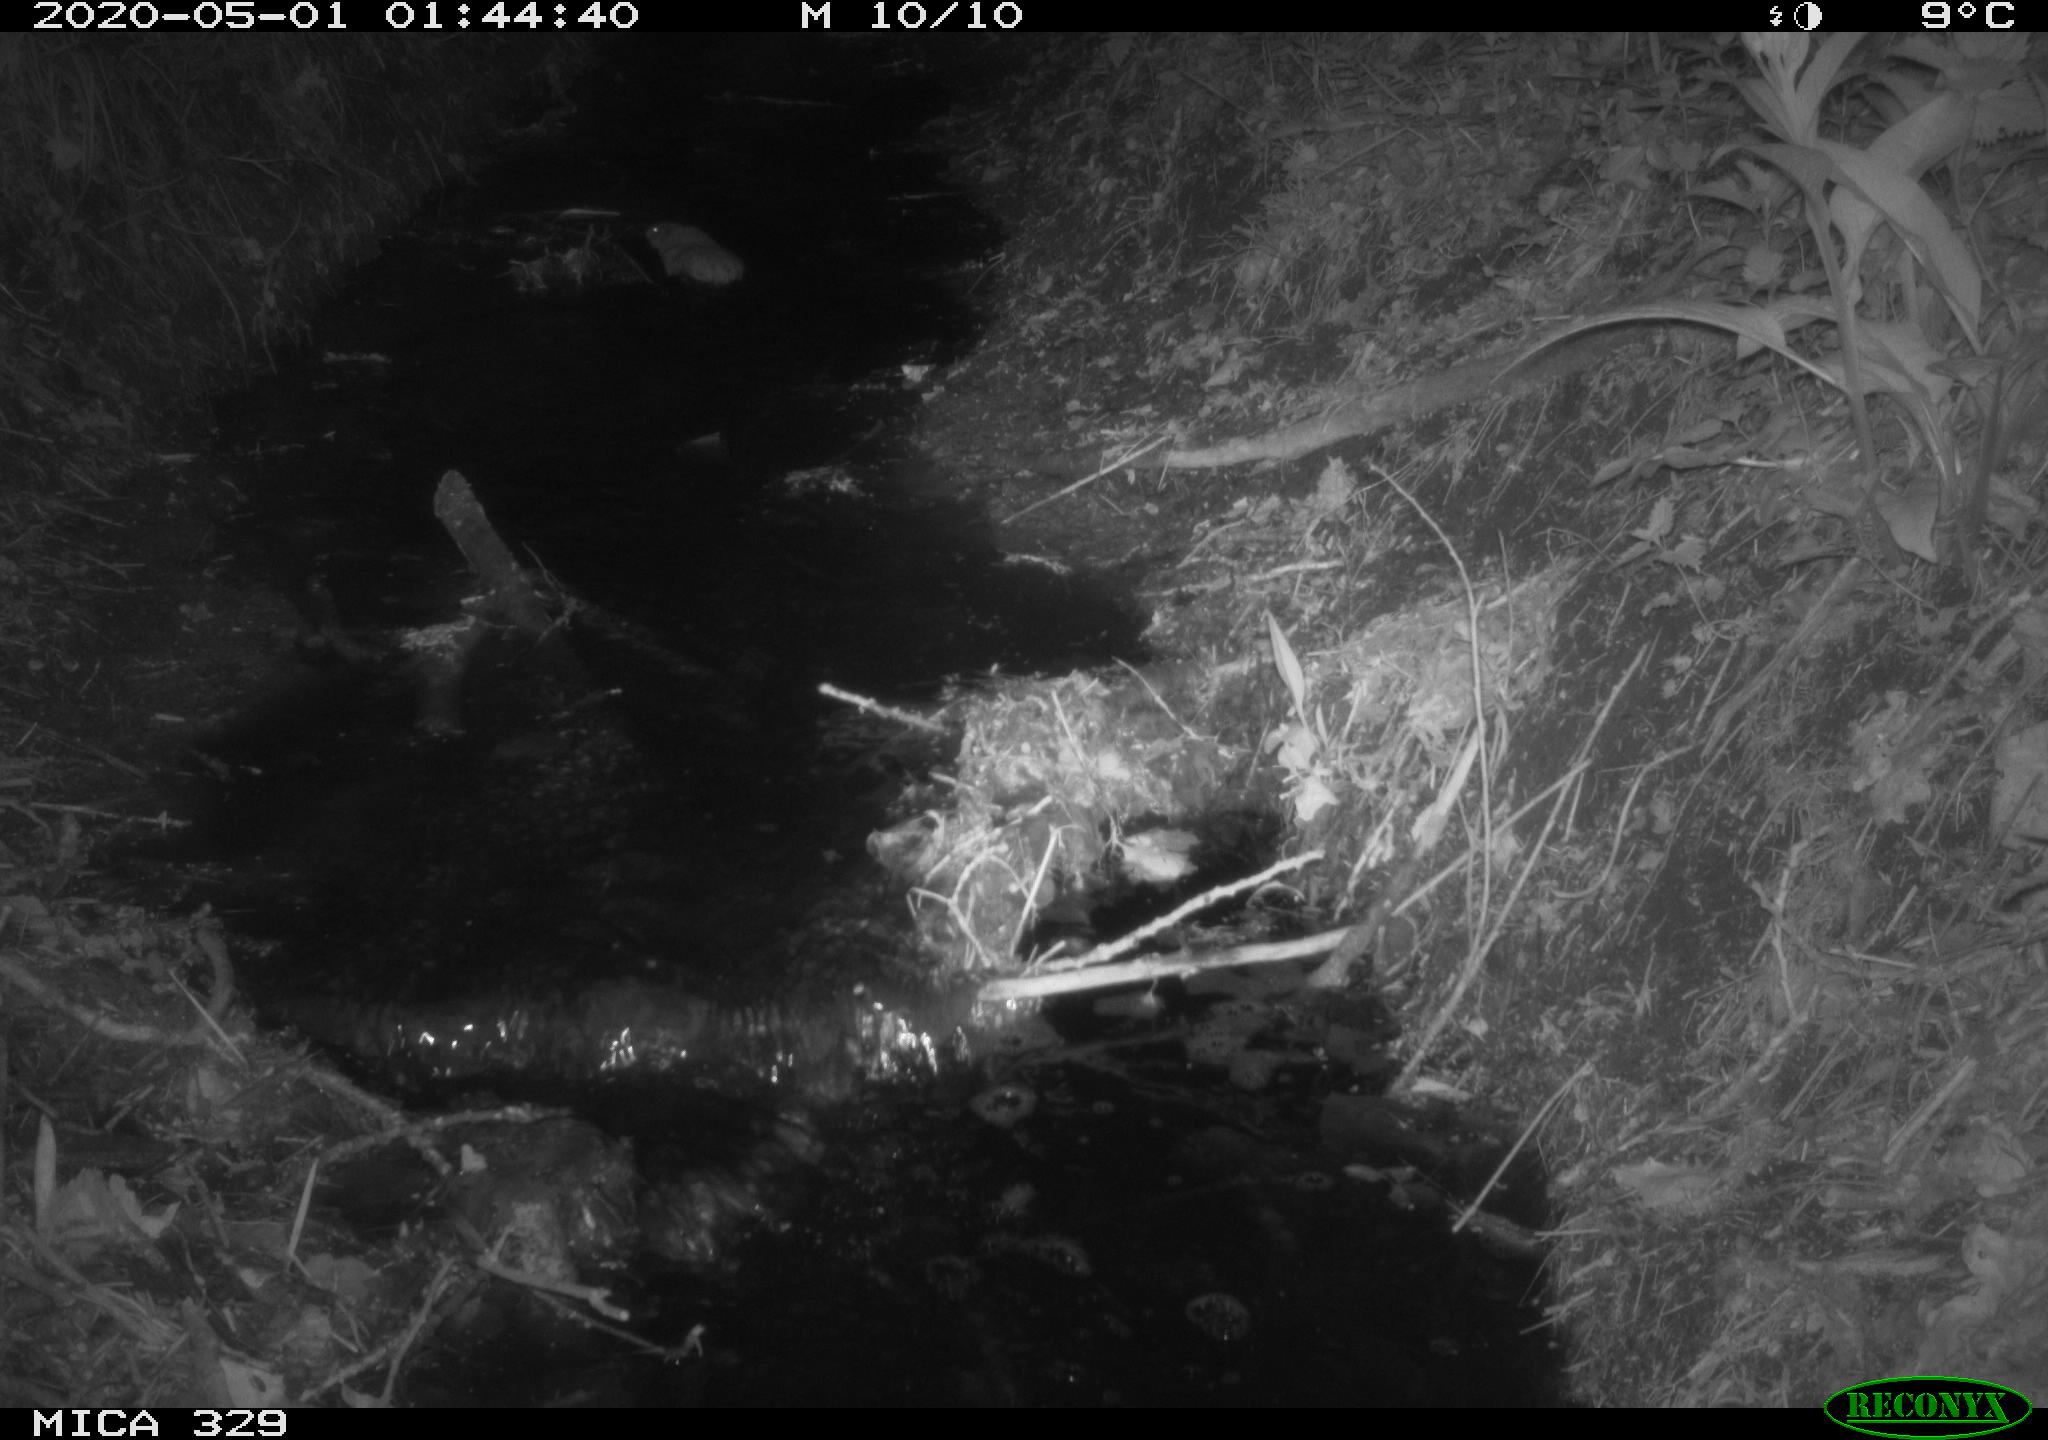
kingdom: Animalia
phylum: Chordata
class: Mammalia
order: Rodentia
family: Cricetidae
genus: Ondatra
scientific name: Ondatra zibethicus
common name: Muskrat
